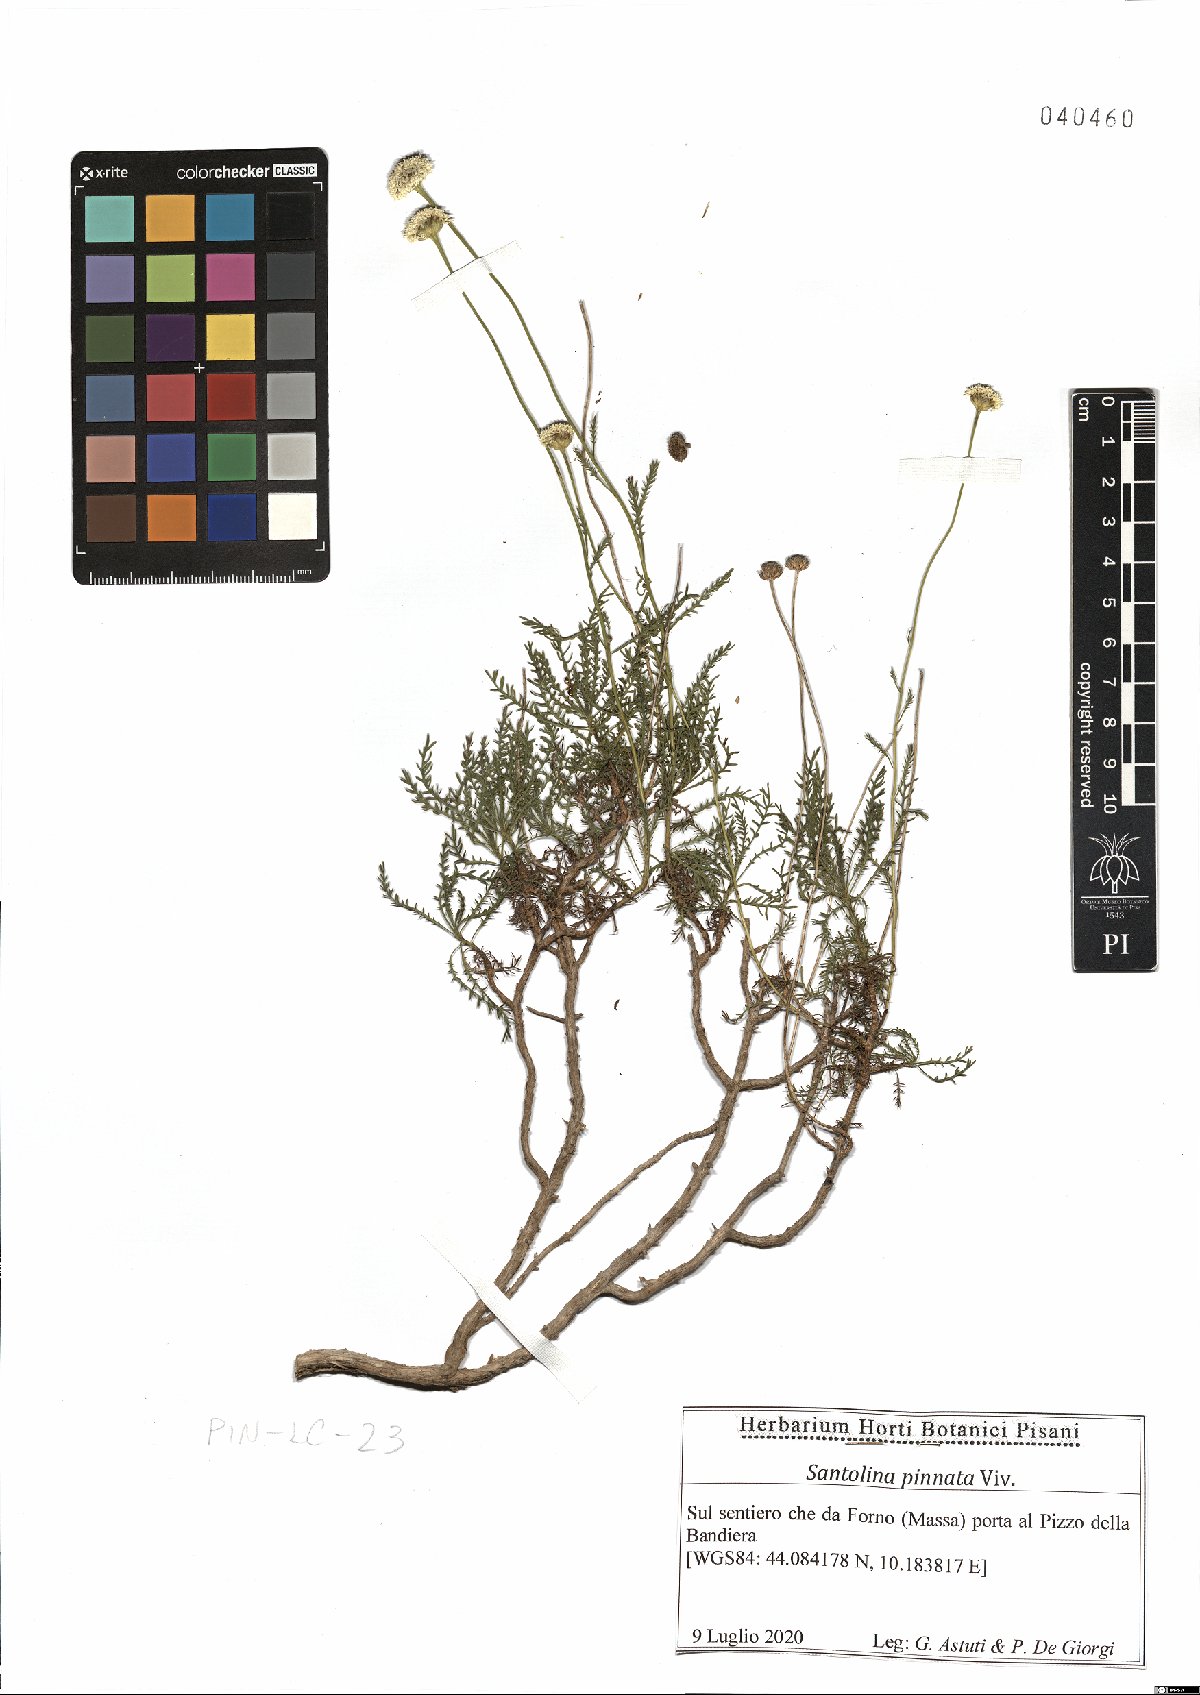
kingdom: Plantae
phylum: Tracheophyta
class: Magnoliopsida
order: Asterales
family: Asteraceae
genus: Santolina
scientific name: Santolina pinnata
